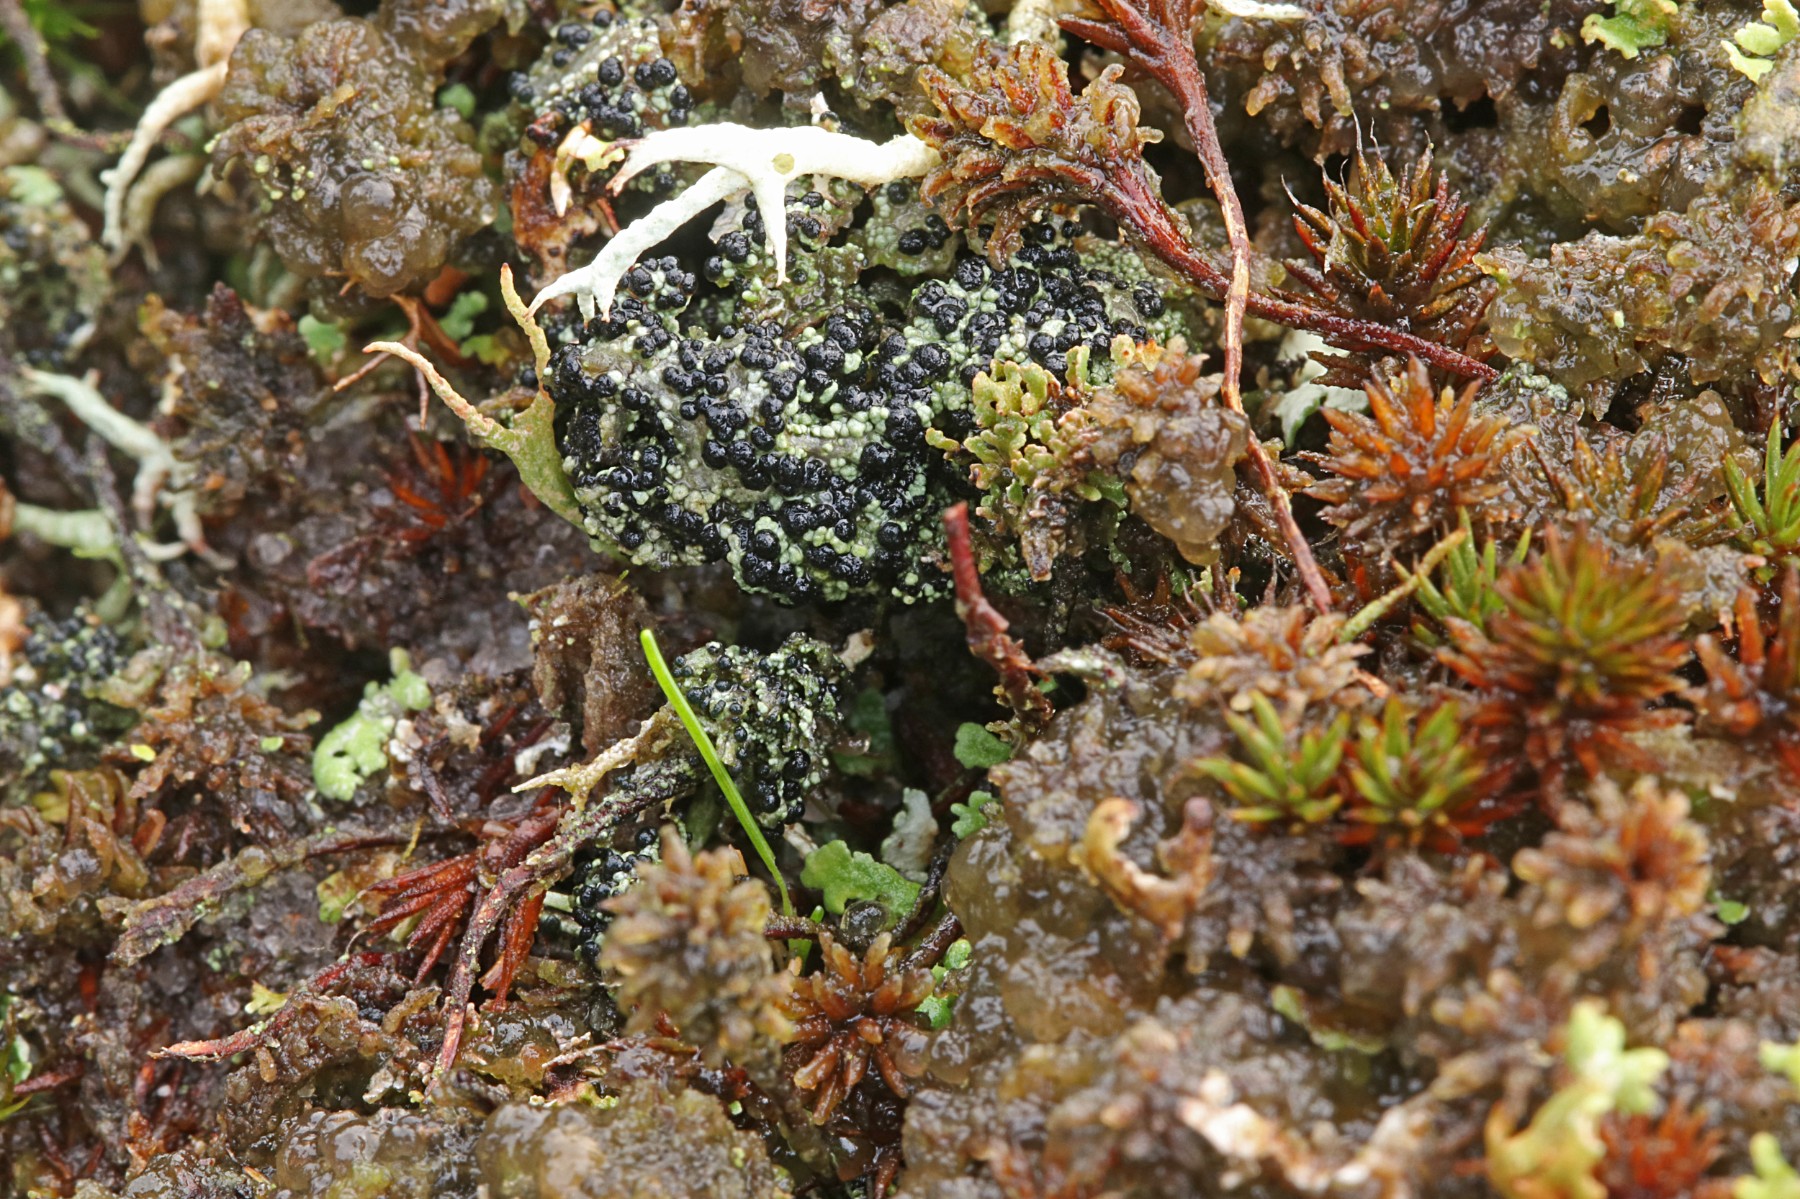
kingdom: Fungi
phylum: Ascomycota
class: Lecanoromycetes
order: Lecanorales
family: Byssolomataceae
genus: Micarea
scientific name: Micarea lignaria
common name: tørve-knaplav
